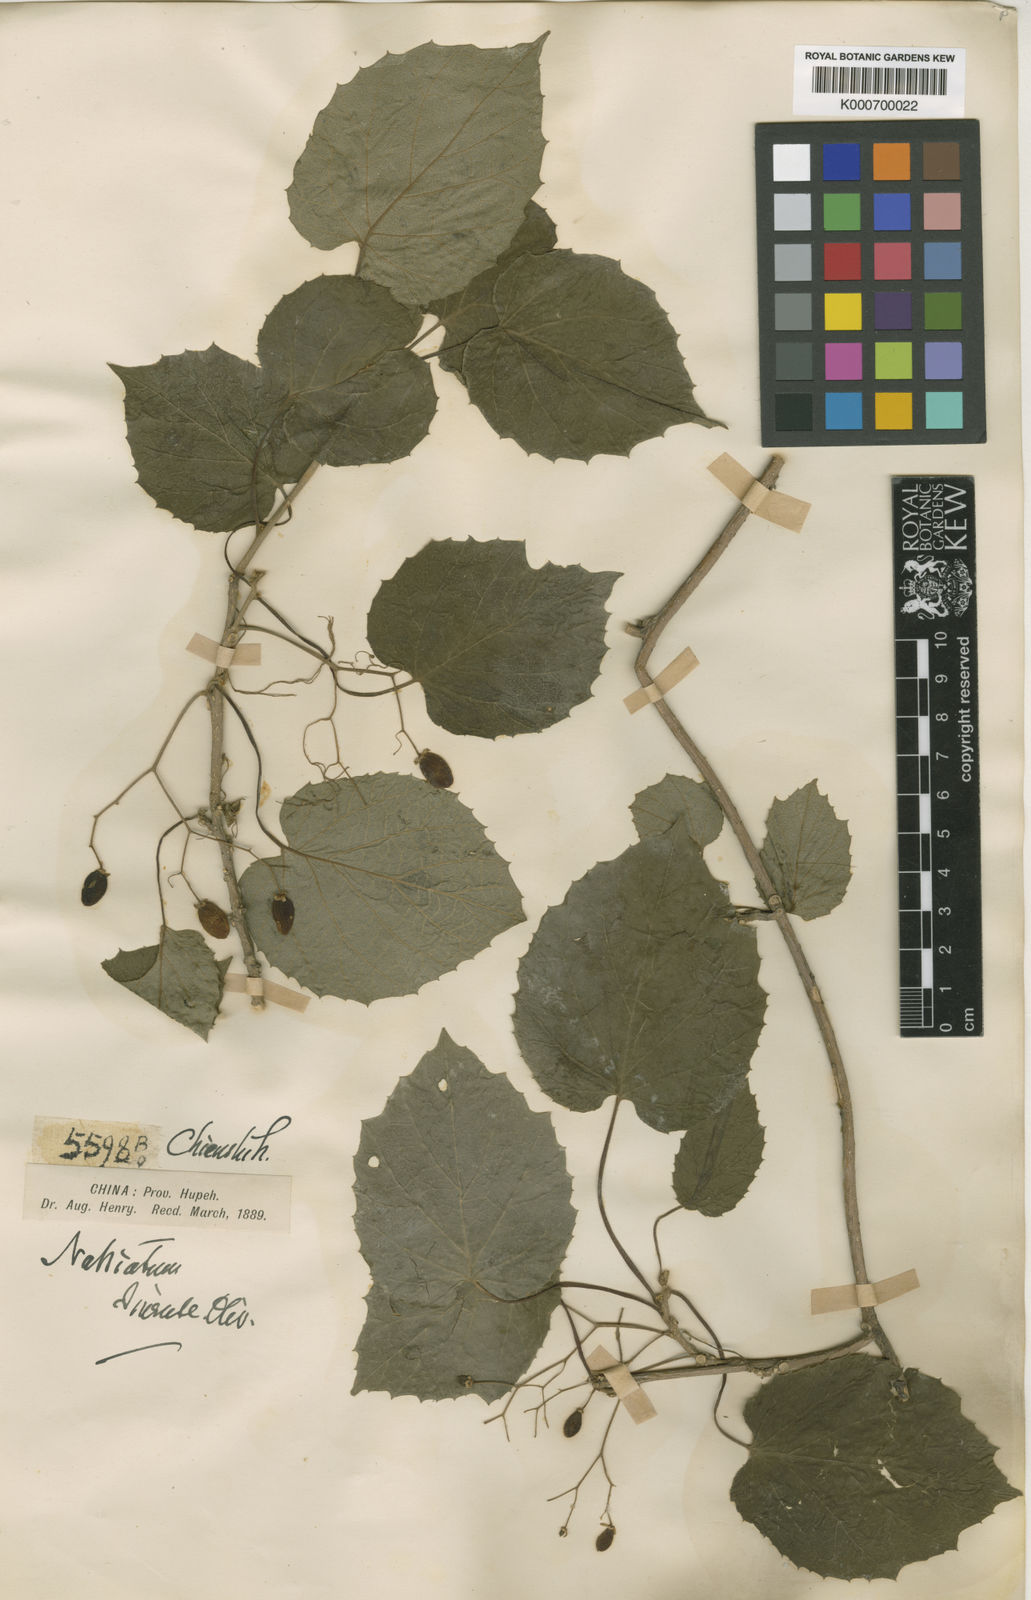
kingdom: Plantae
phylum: Tracheophyta
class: Magnoliopsida
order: Icacinales
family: Icacinaceae
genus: Hosiea
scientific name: Hosiea sinensis
